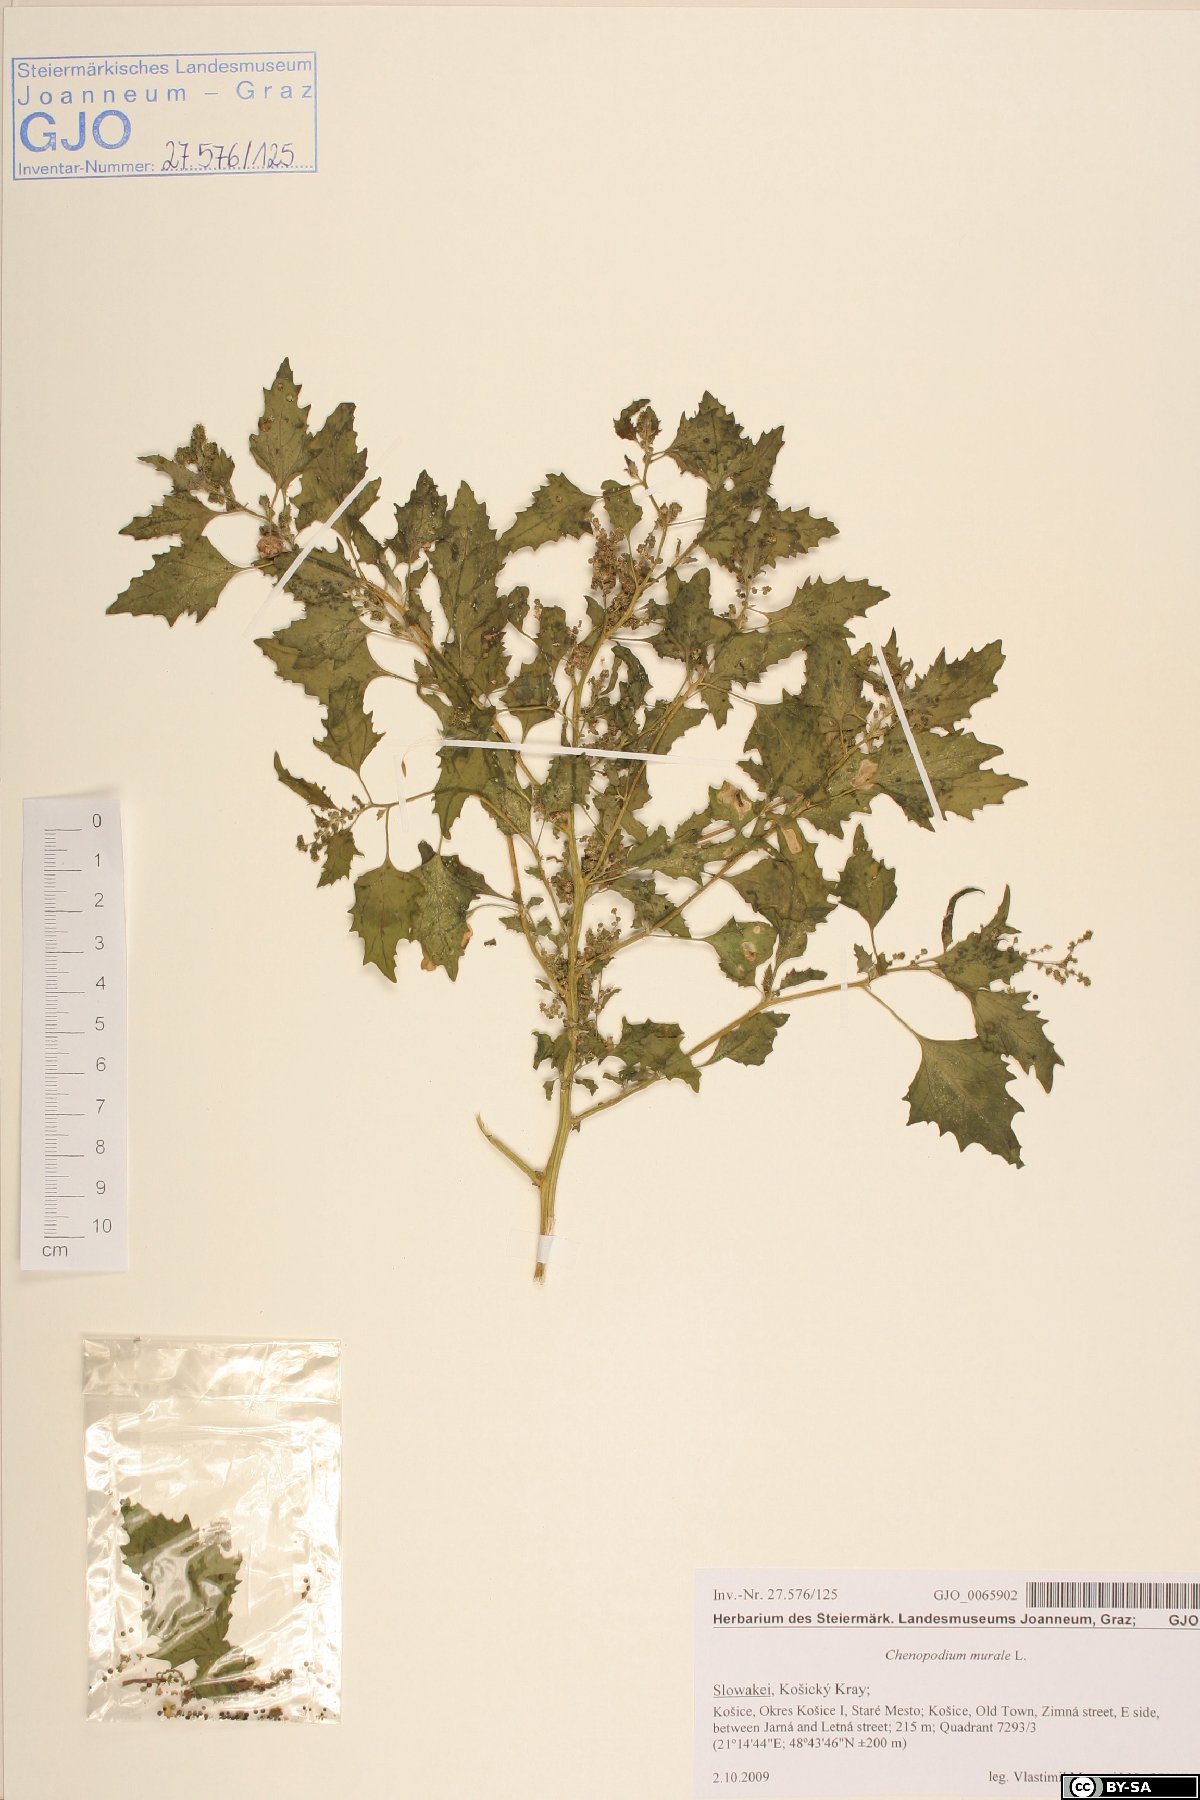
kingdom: Plantae
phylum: Tracheophyta
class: Magnoliopsida
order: Caryophyllales
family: Amaranthaceae
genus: Chenopodiastrum
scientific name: Chenopodiastrum murale
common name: Sowbane
